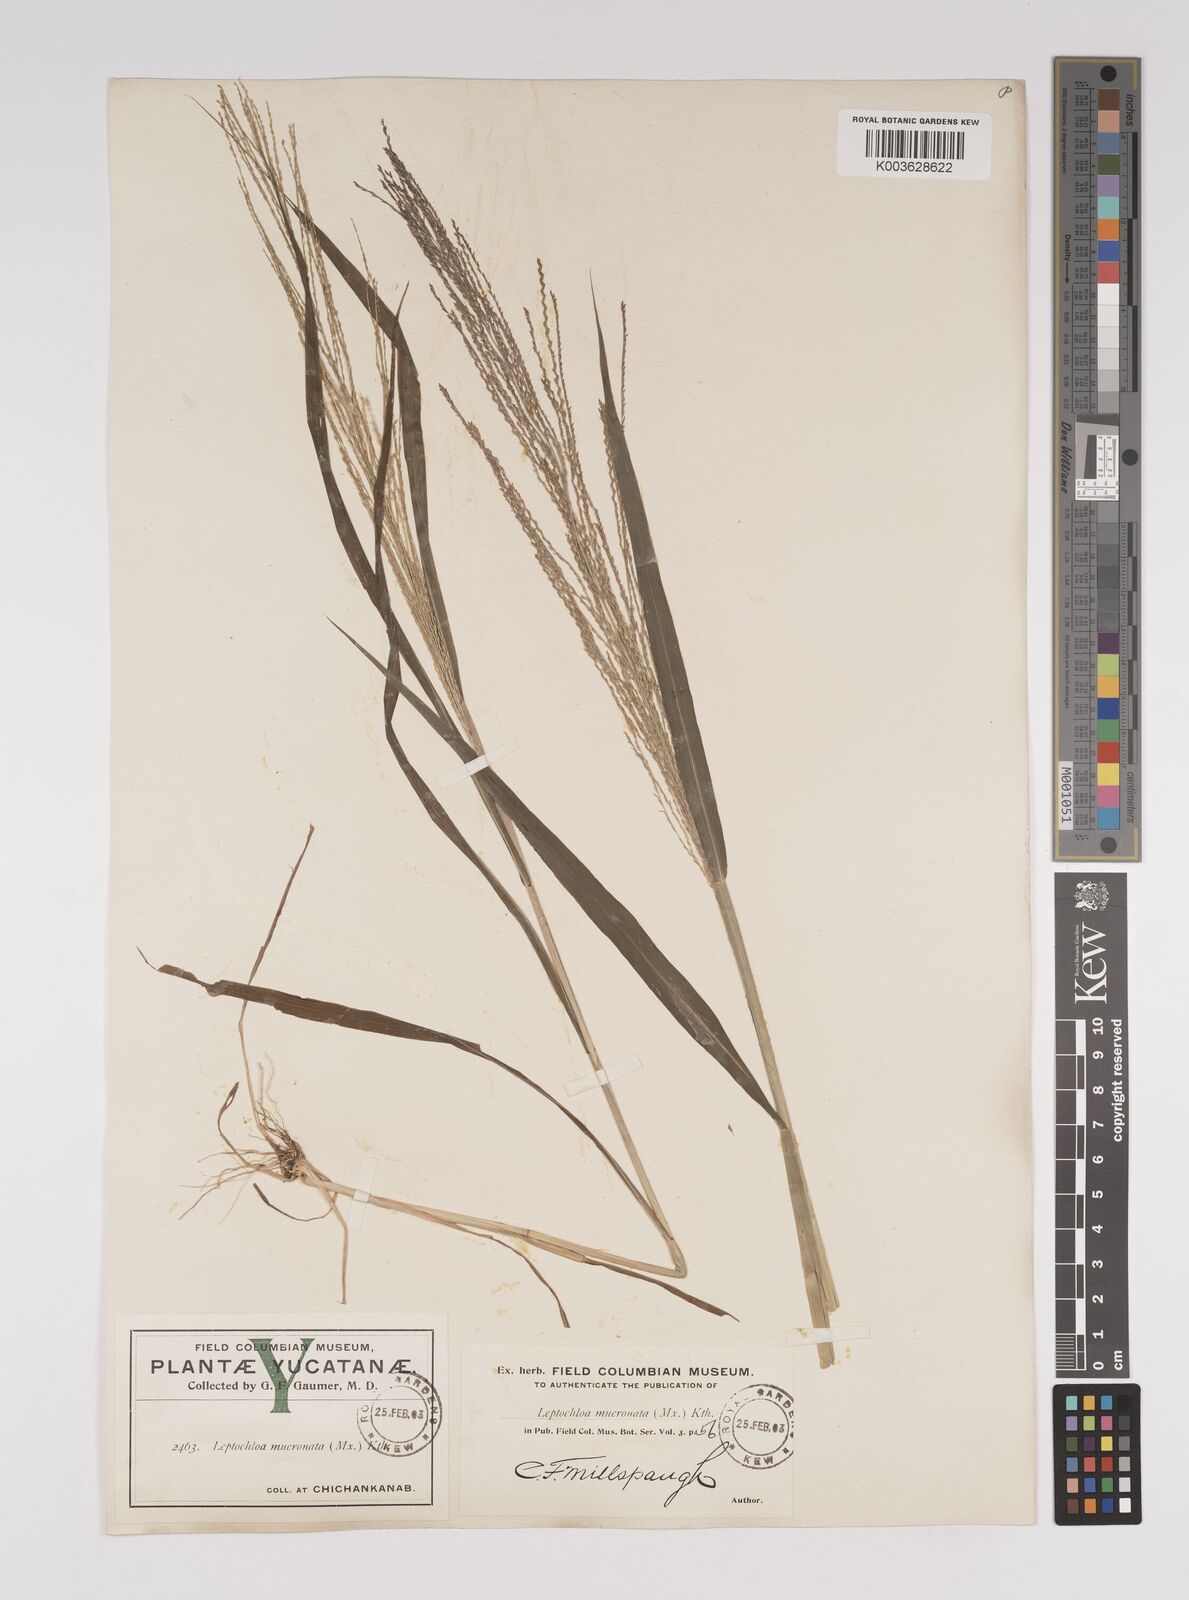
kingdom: Plantae
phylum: Tracheophyta
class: Liliopsida
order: Poales
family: Poaceae
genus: Leptochloa
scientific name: Leptochloa panicea
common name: Mucronate sprangletop
